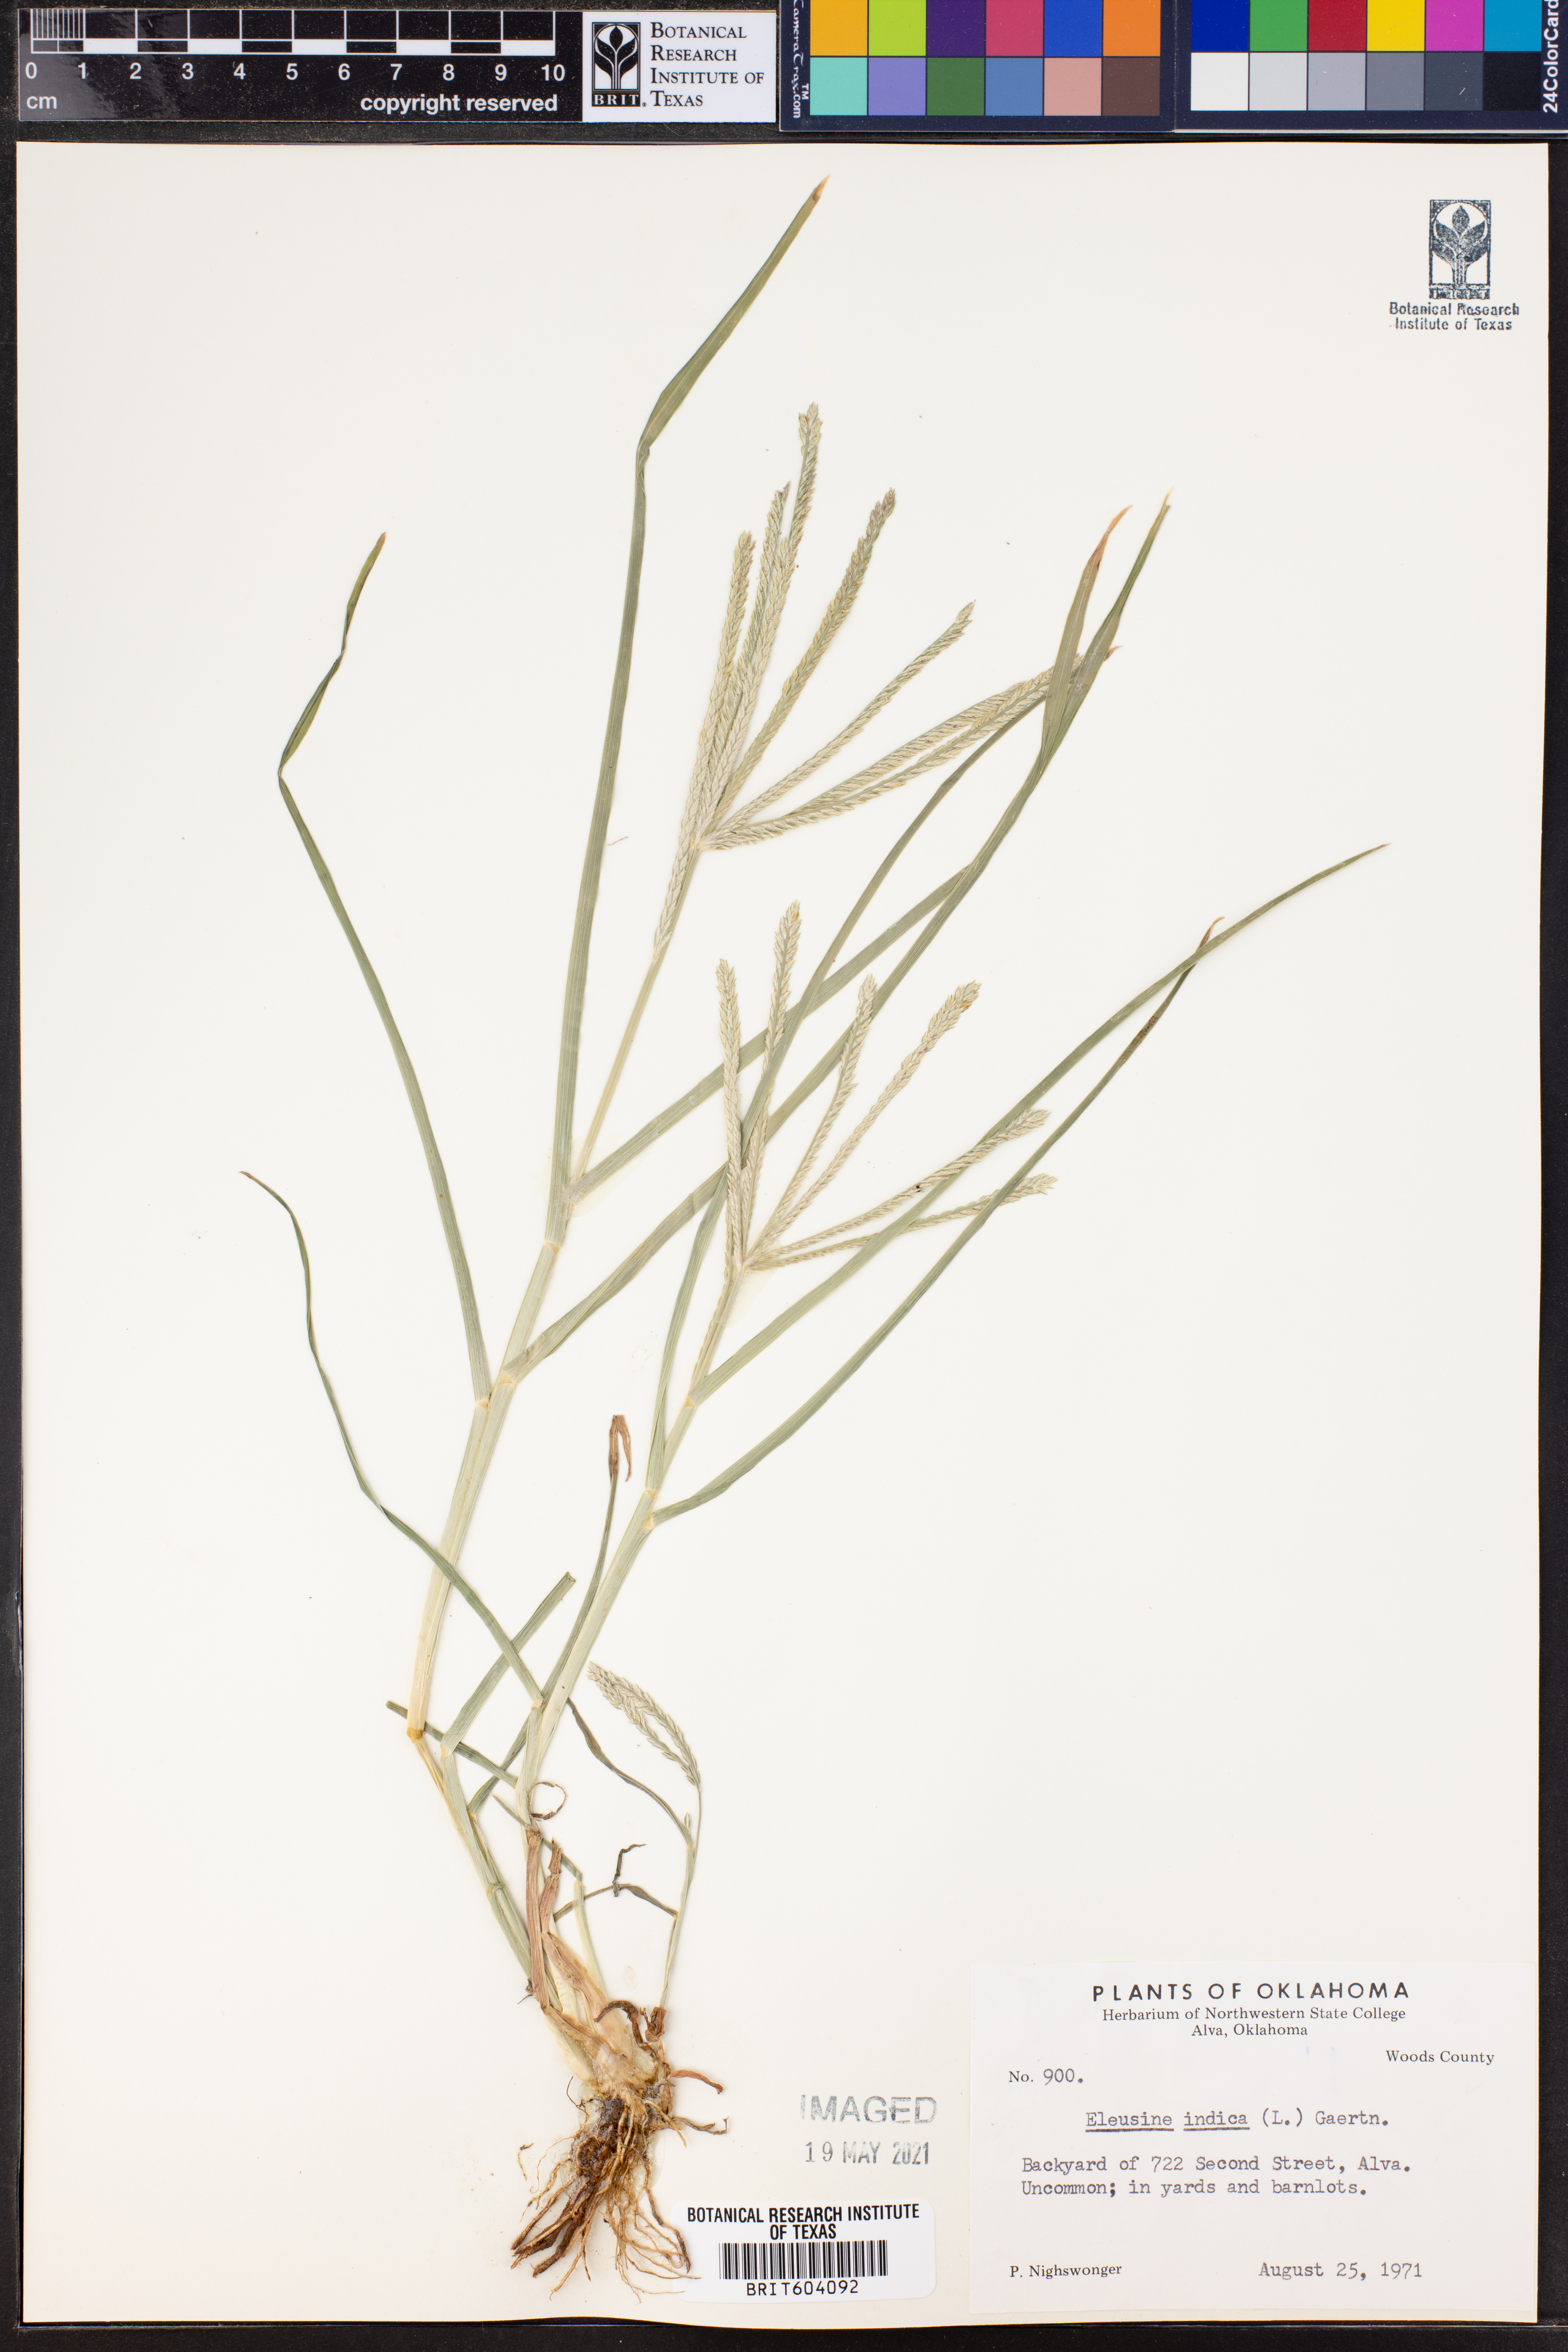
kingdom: Plantae
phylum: Tracheophyta
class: Liliopsida
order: Poales
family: Poaceae
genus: Eleusine
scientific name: Eleusine indica
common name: Yard-grass
